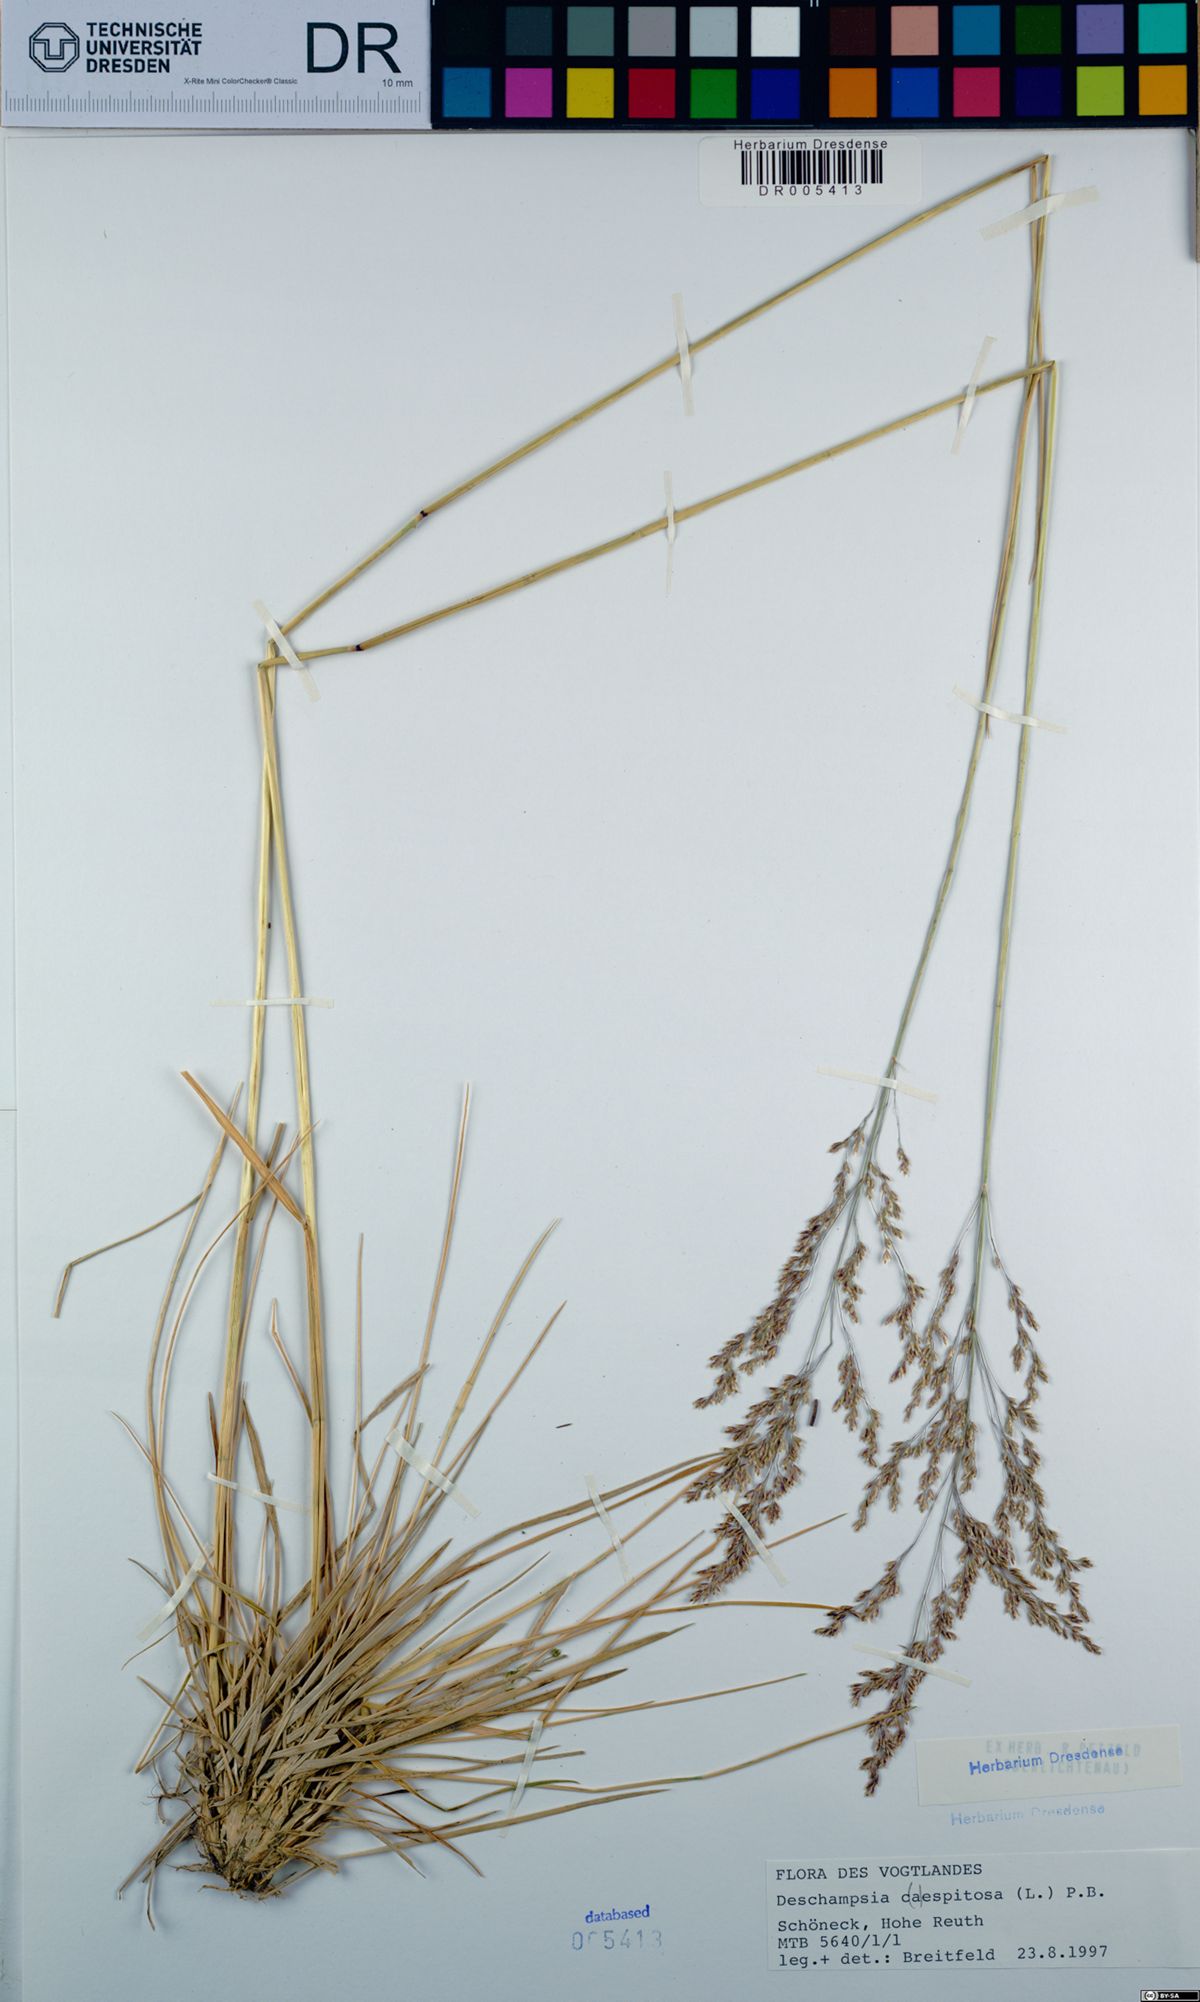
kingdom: Plantae
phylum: Tracheophyta
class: Liliopsida
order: Poales
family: Poaceae
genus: Deschampsia
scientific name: Deschampsia cespitosa
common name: Tufted hair-grass
